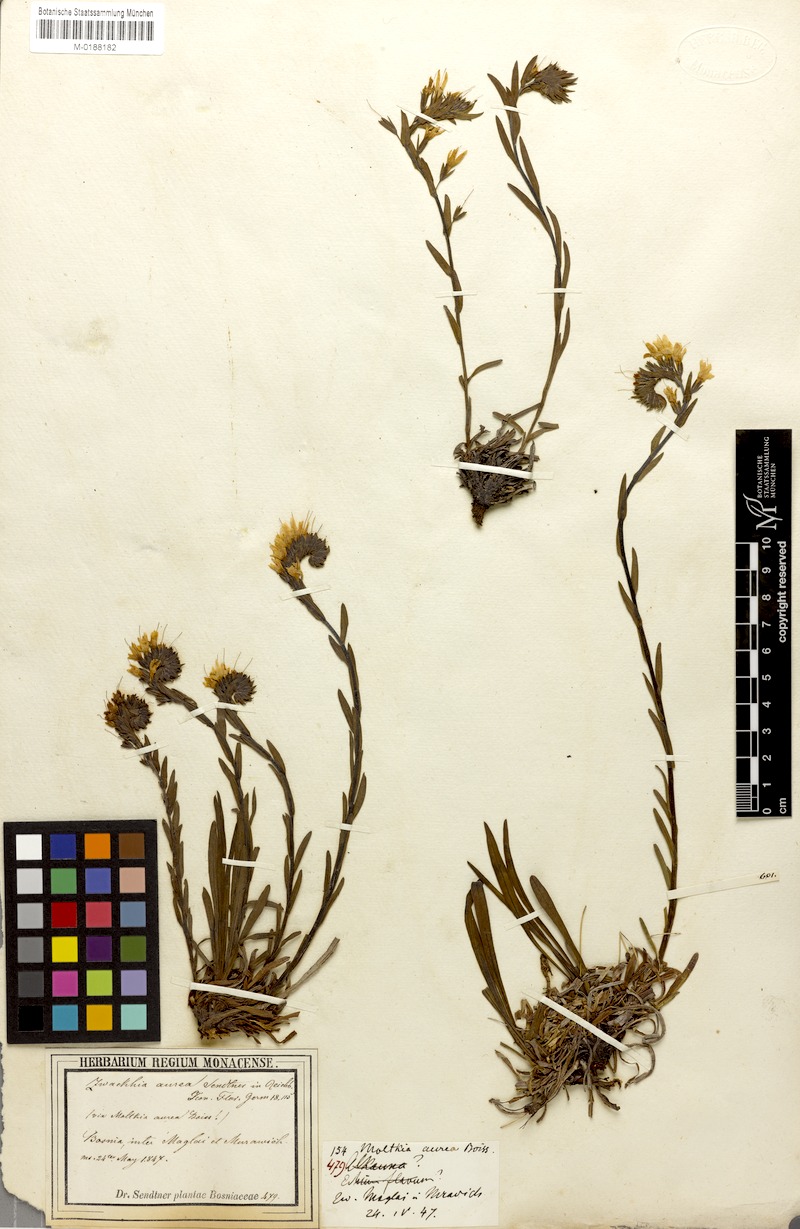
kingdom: Plantae
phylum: Tracheophyta
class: Magnoliopsida
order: Boraginales
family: Boraginaceae
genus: Halacsya
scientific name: Halacsya sendtneri
